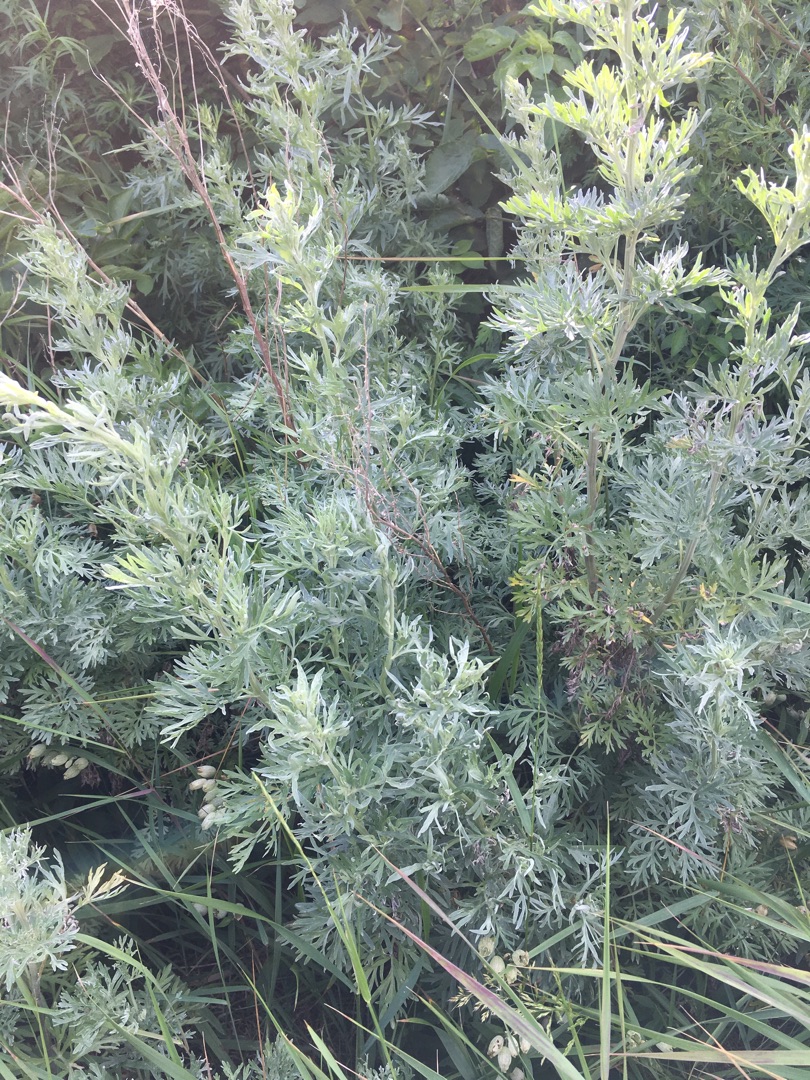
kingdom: Plantae
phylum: Tracheophyta
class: Magnoliopsida
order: Asterales
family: Asteraceae
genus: Artemisia
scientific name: Artemisia absinthium
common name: Havemalurt
